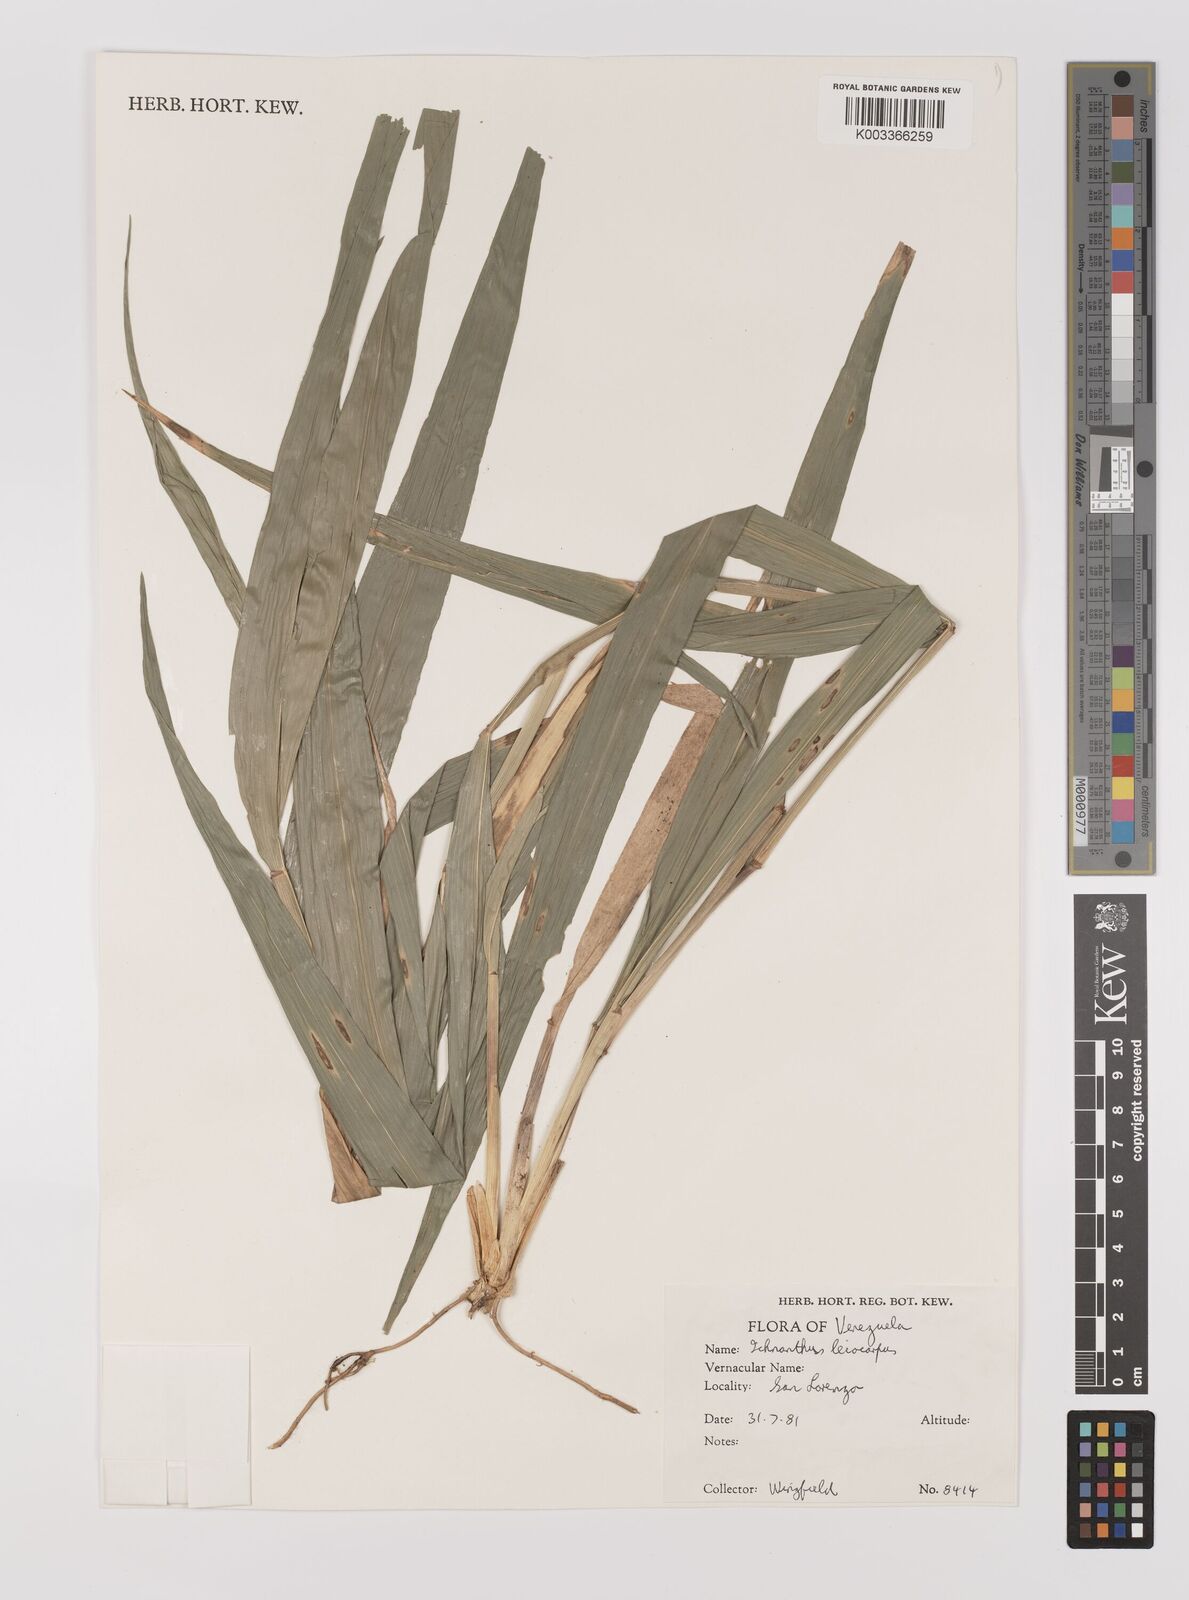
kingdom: Plantae
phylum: Tracheophyta
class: Liliopsida
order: Poales
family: Poaceae
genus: Ichnanthus
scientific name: Ichnanthus leiocarpus
